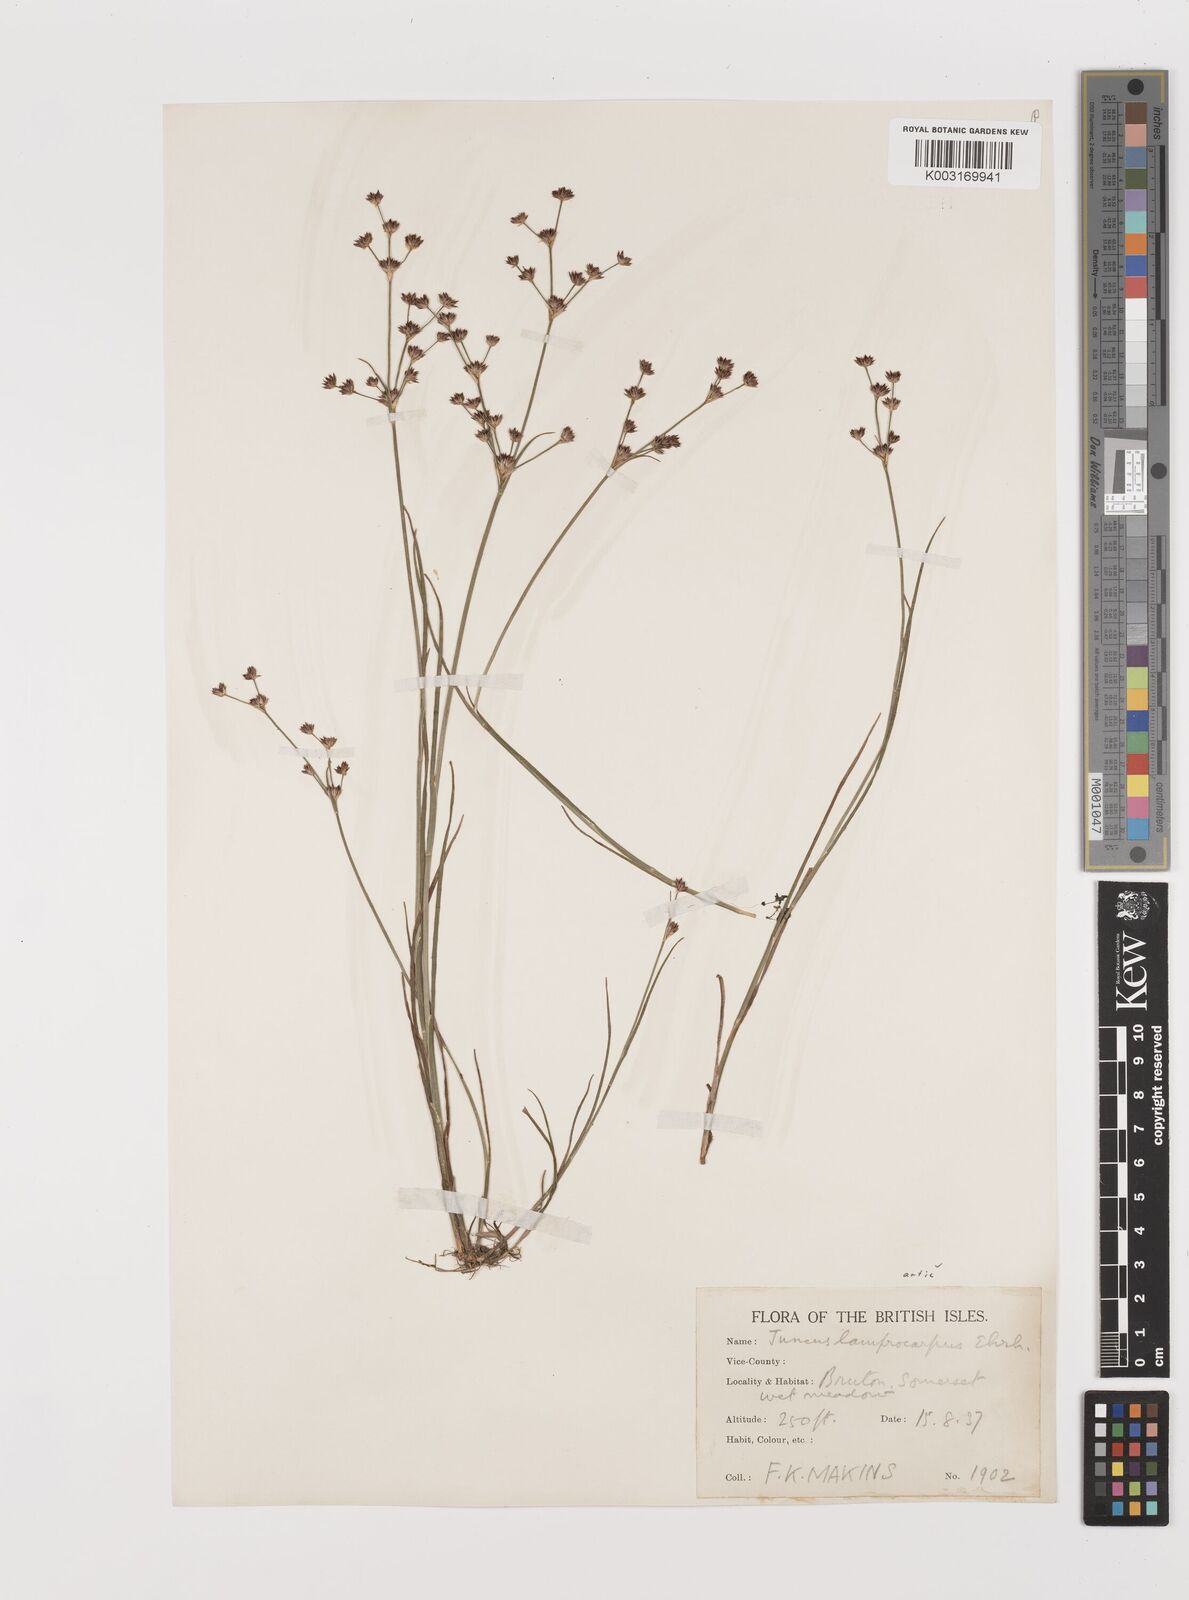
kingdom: Plantae
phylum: Tracheophyta
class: Liliopsida
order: Poales
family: Juncaceae
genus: Juncus
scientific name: Juncus articulatus
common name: Jointed rush
